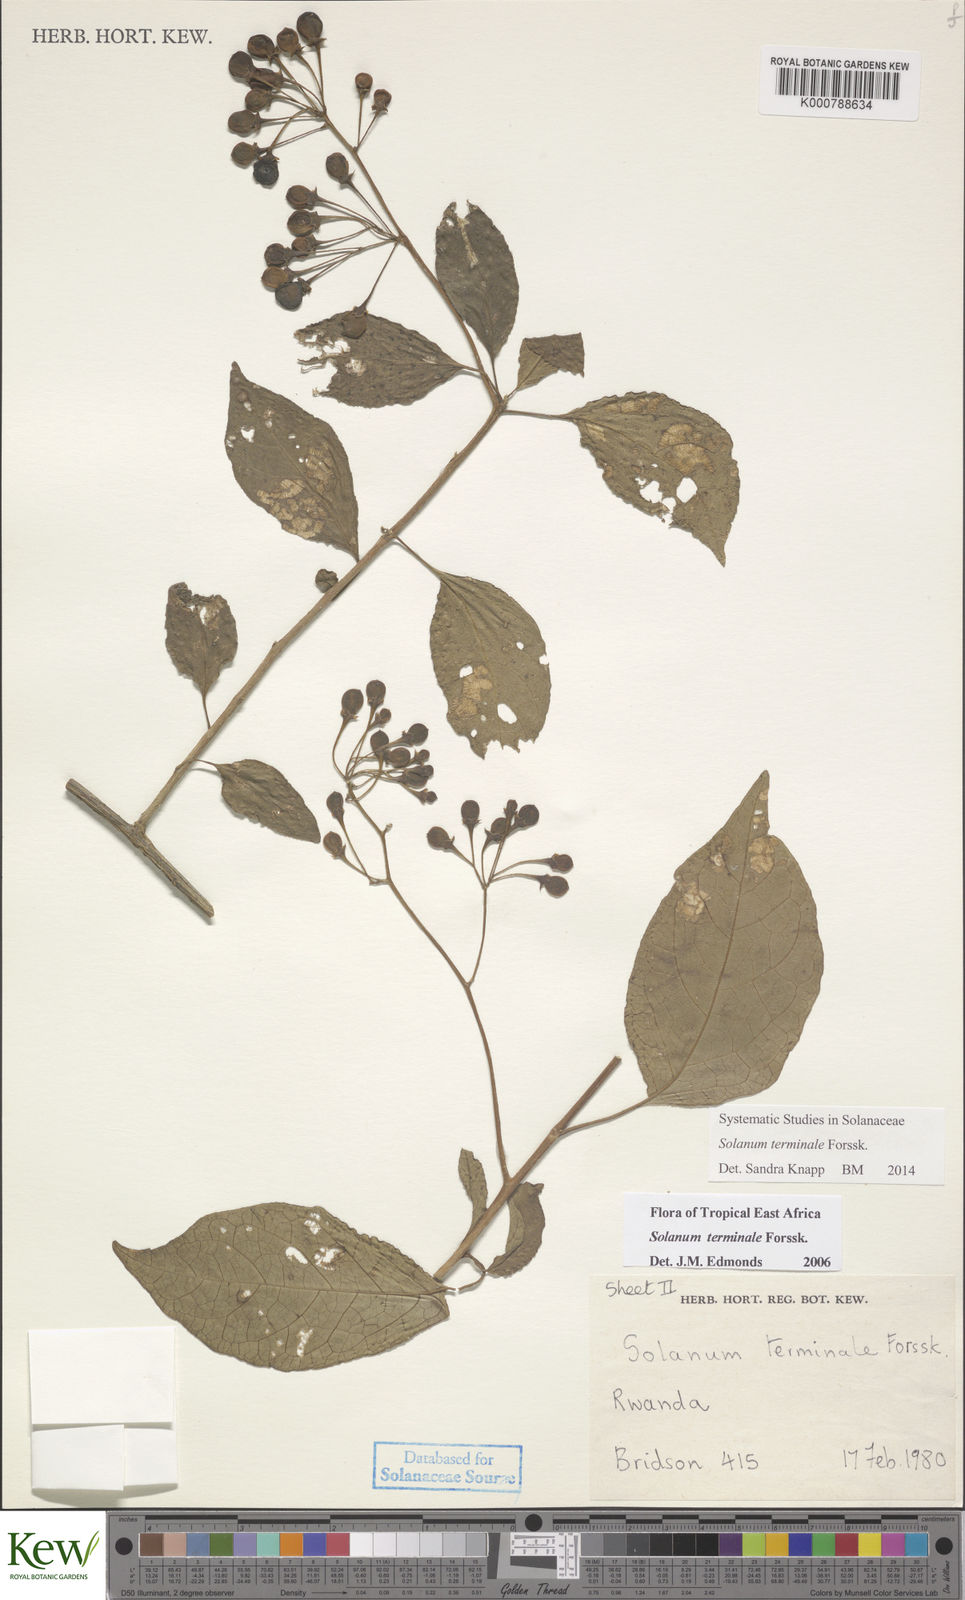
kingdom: Plantae
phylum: Tracheophyta
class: Magnoliopsida
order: Solanales
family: Solanaceae
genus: Solanum
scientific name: Solanum terminale
